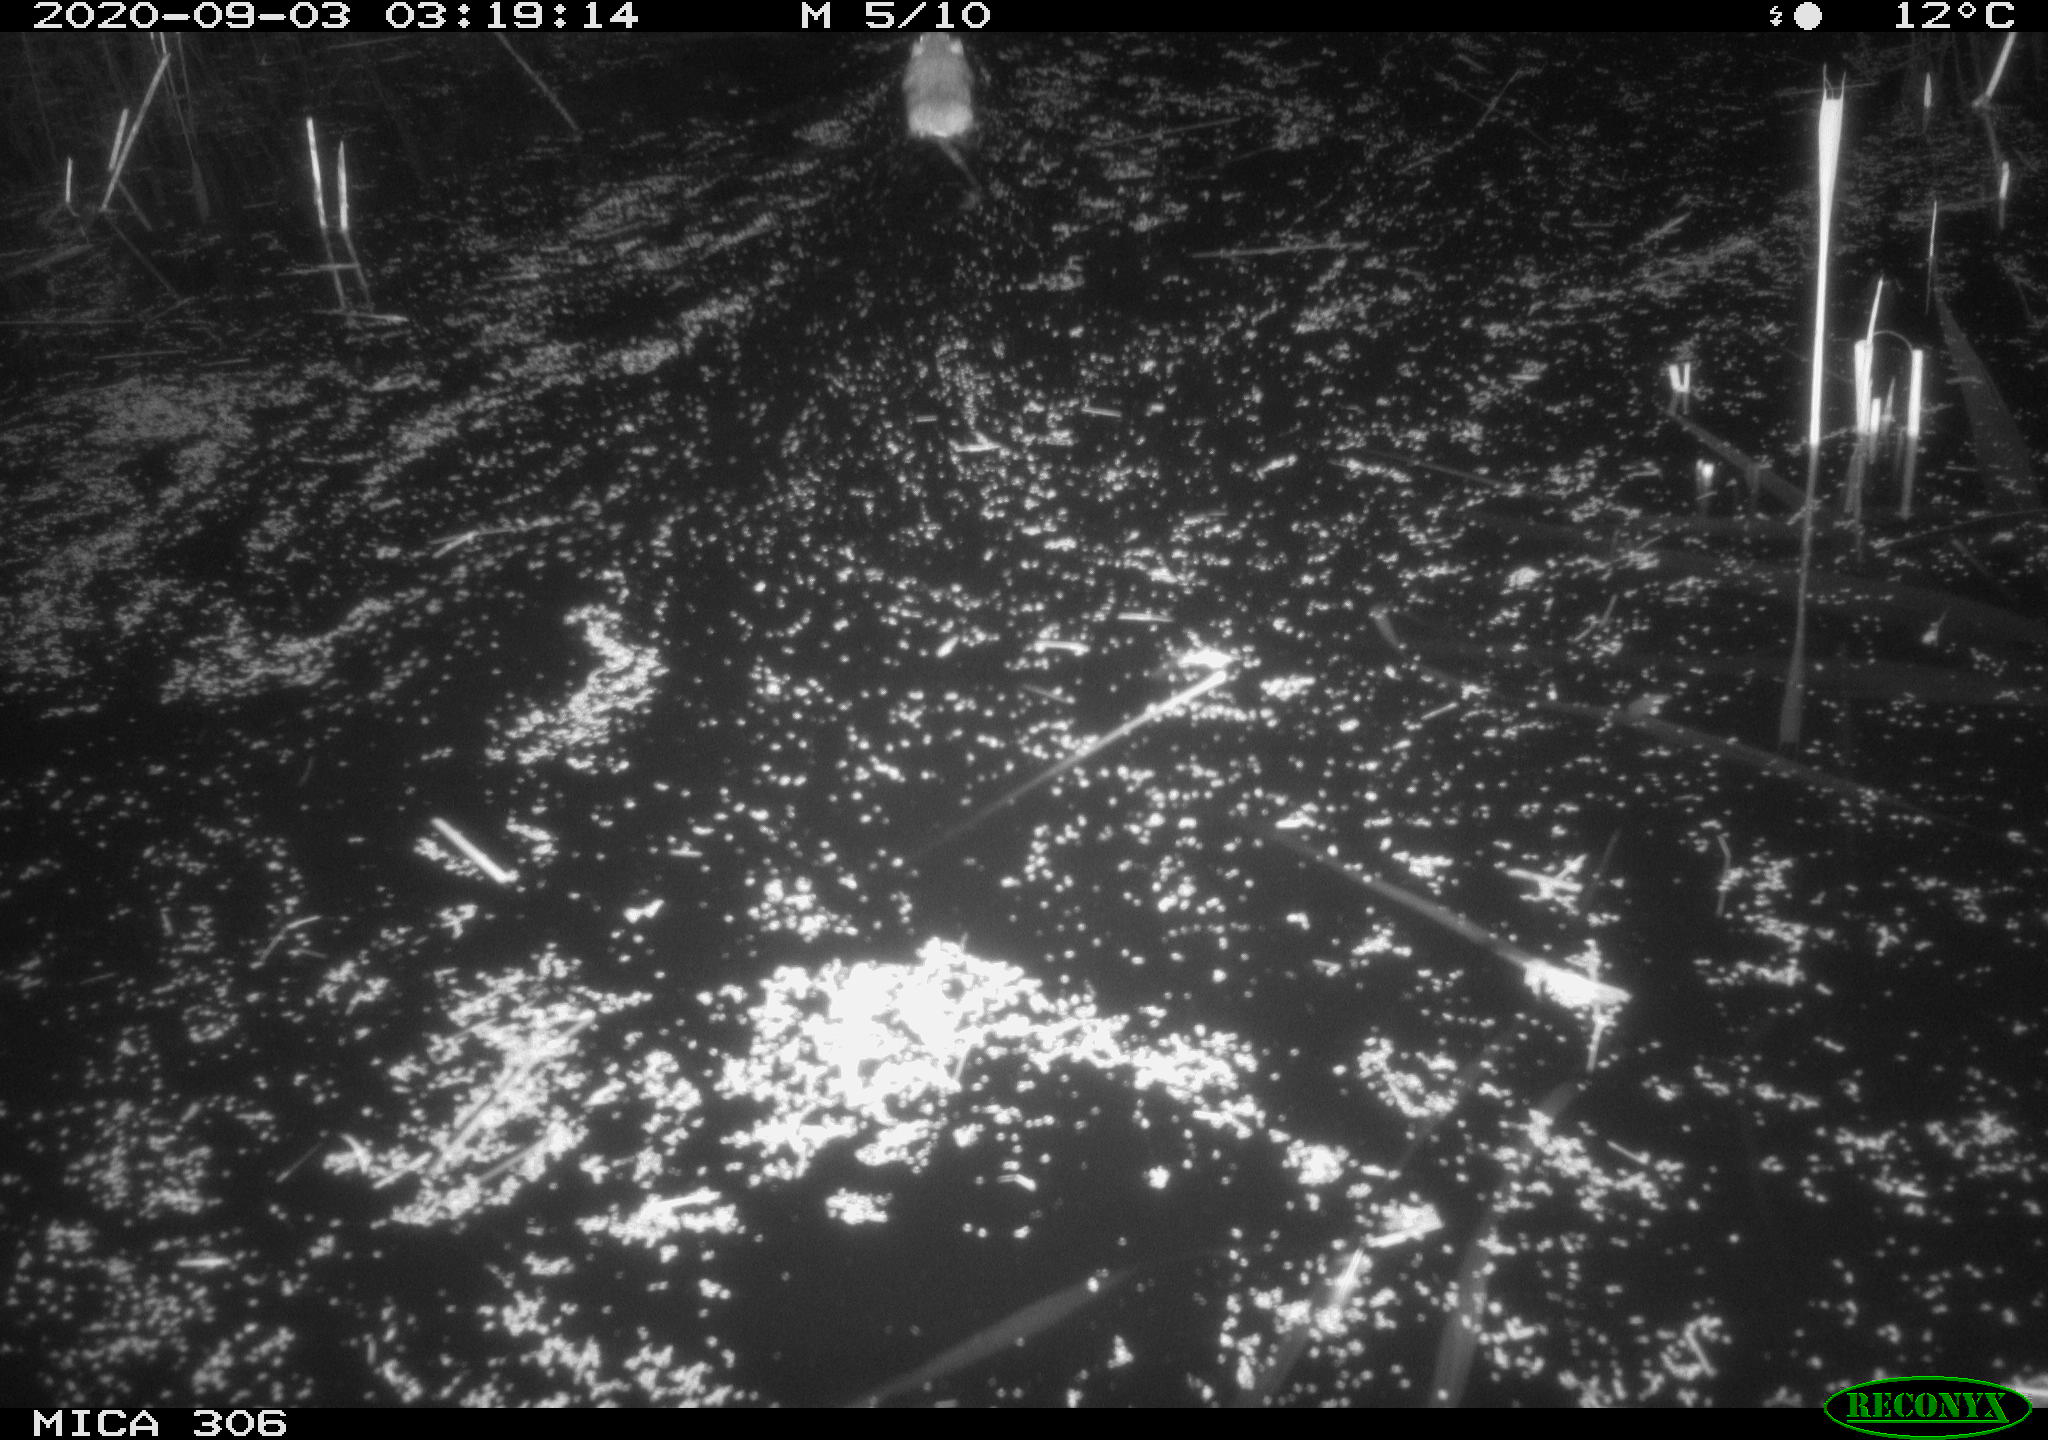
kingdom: Animalia
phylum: Chordata
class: Mammalia
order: Rodentia
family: Muridae
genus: Rattus
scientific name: Rattus norvegicus
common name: Brown rat
